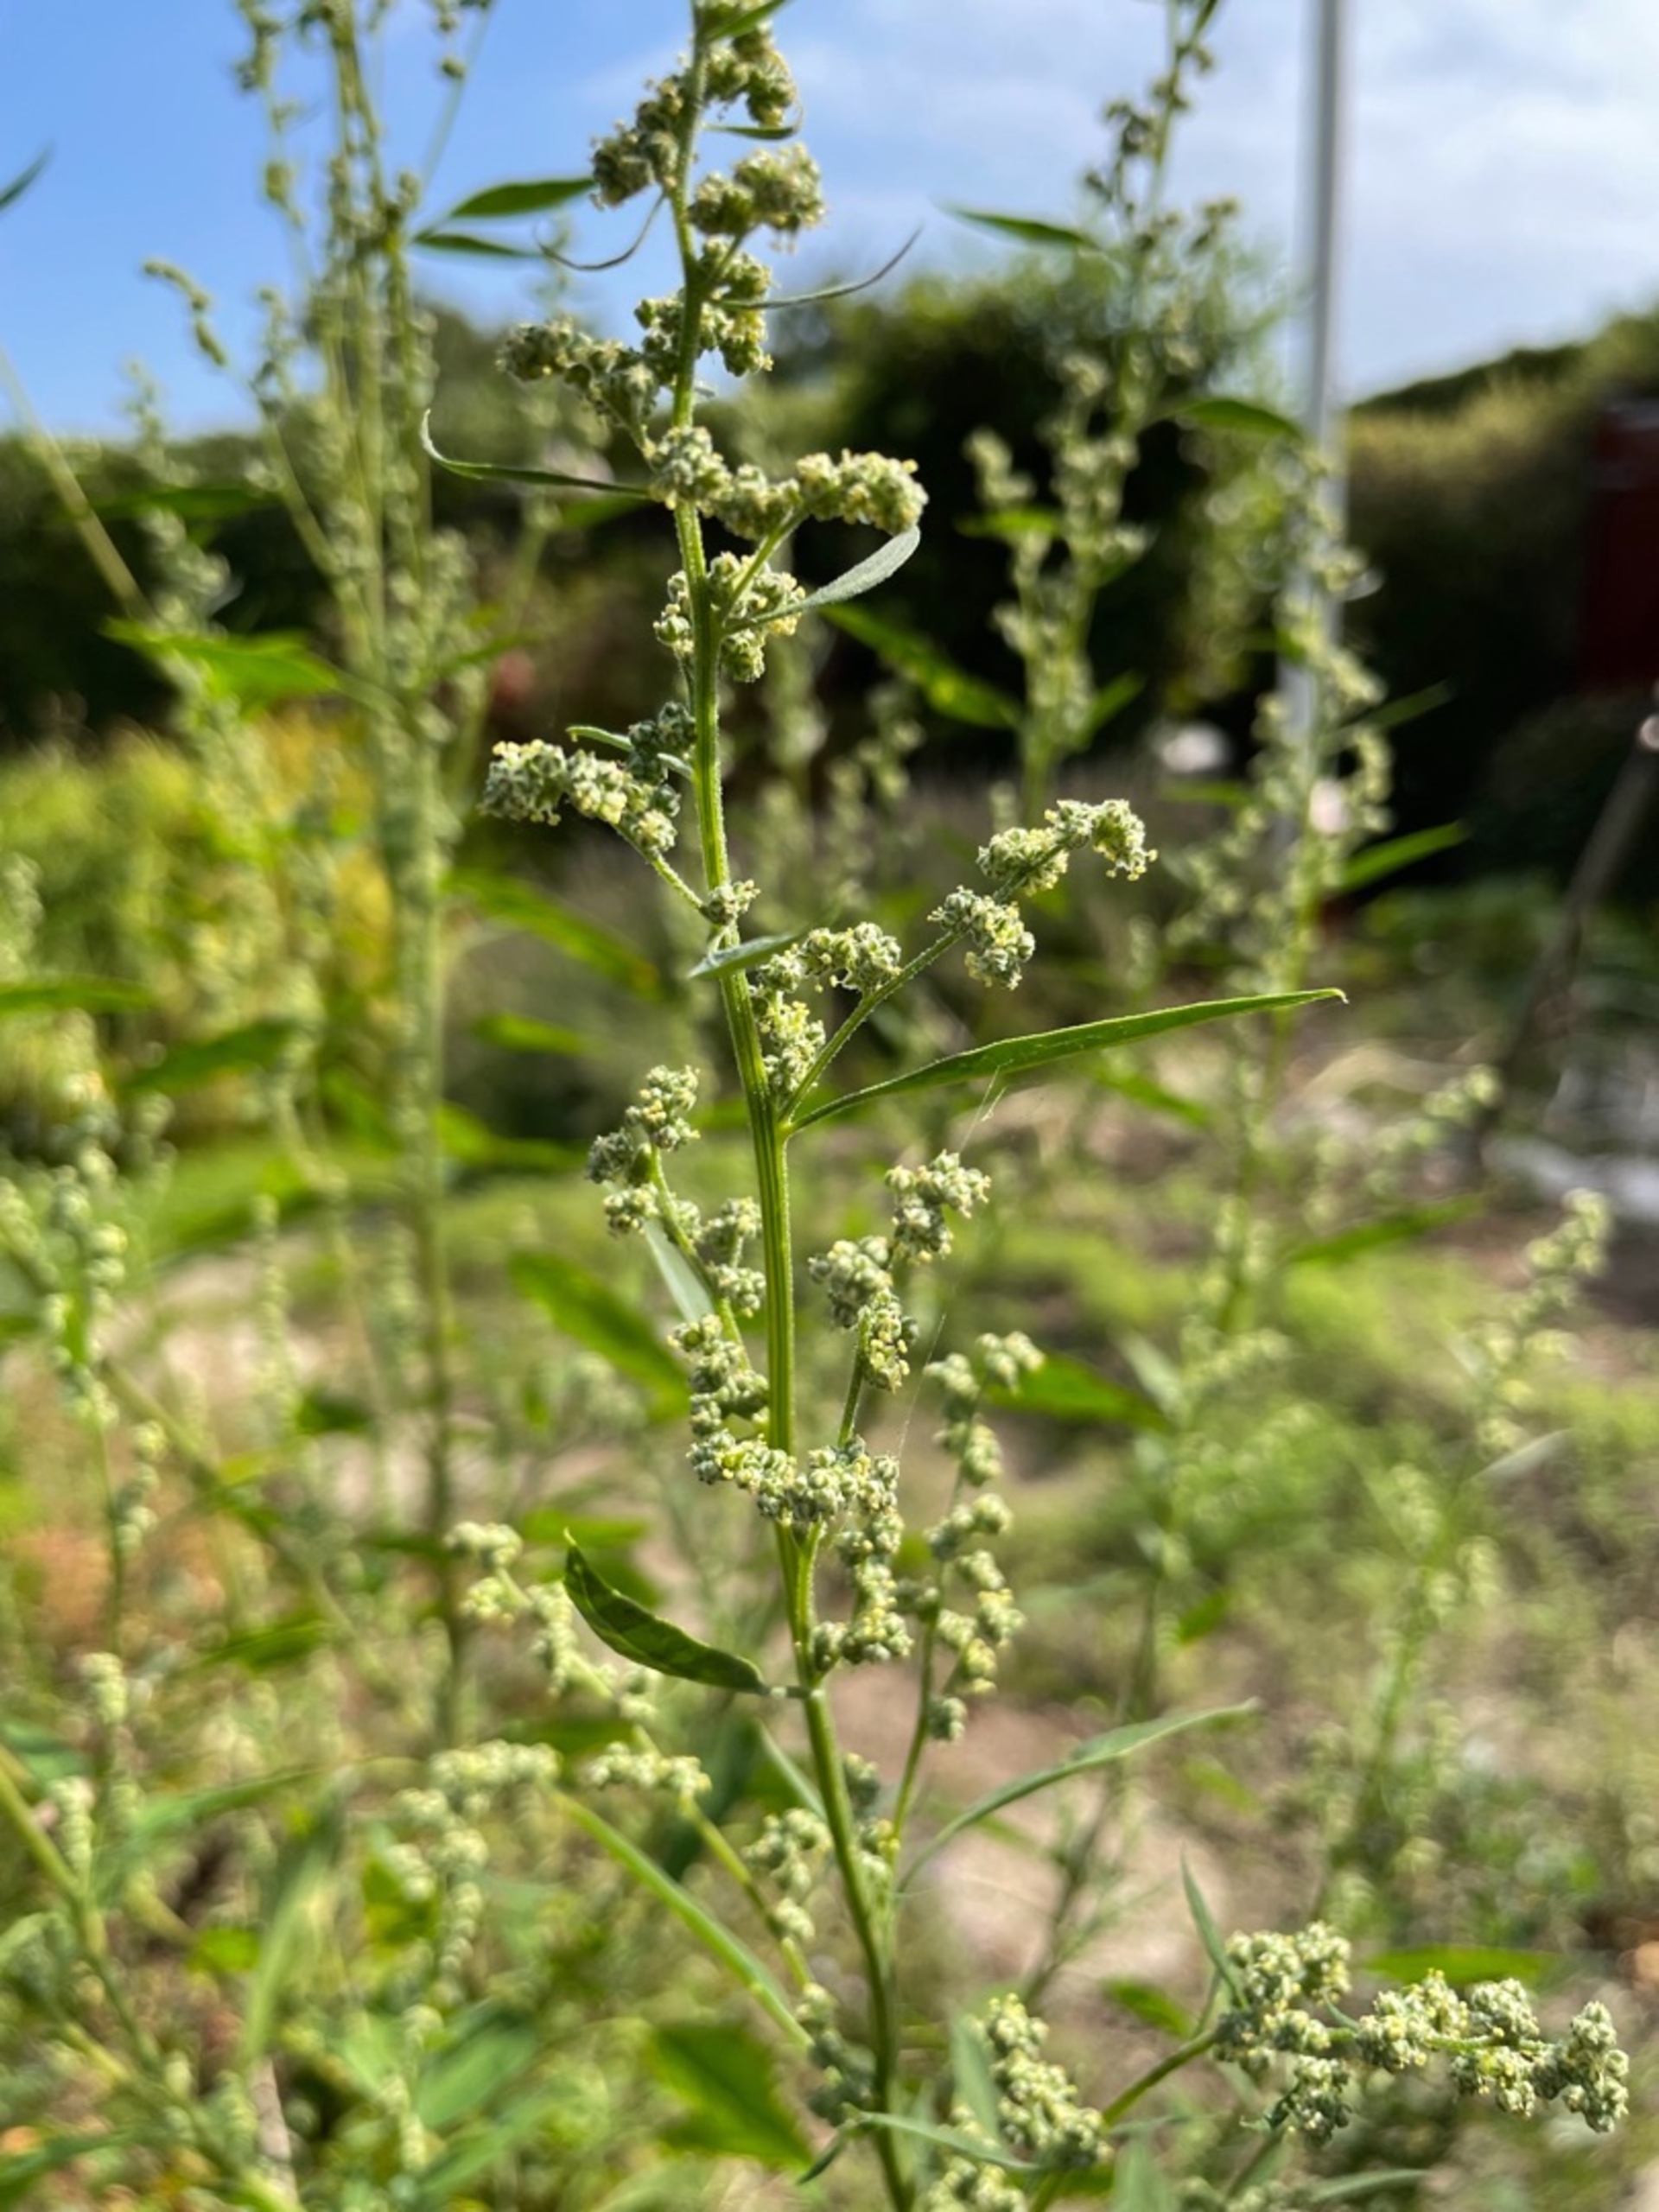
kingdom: Plantae
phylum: Tracheophyta
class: Magnoliopsida
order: Caryophyllales
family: Amaranthaceae
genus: Chenopodium
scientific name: Chenopodium album
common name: Hvidmelet gåsefod
